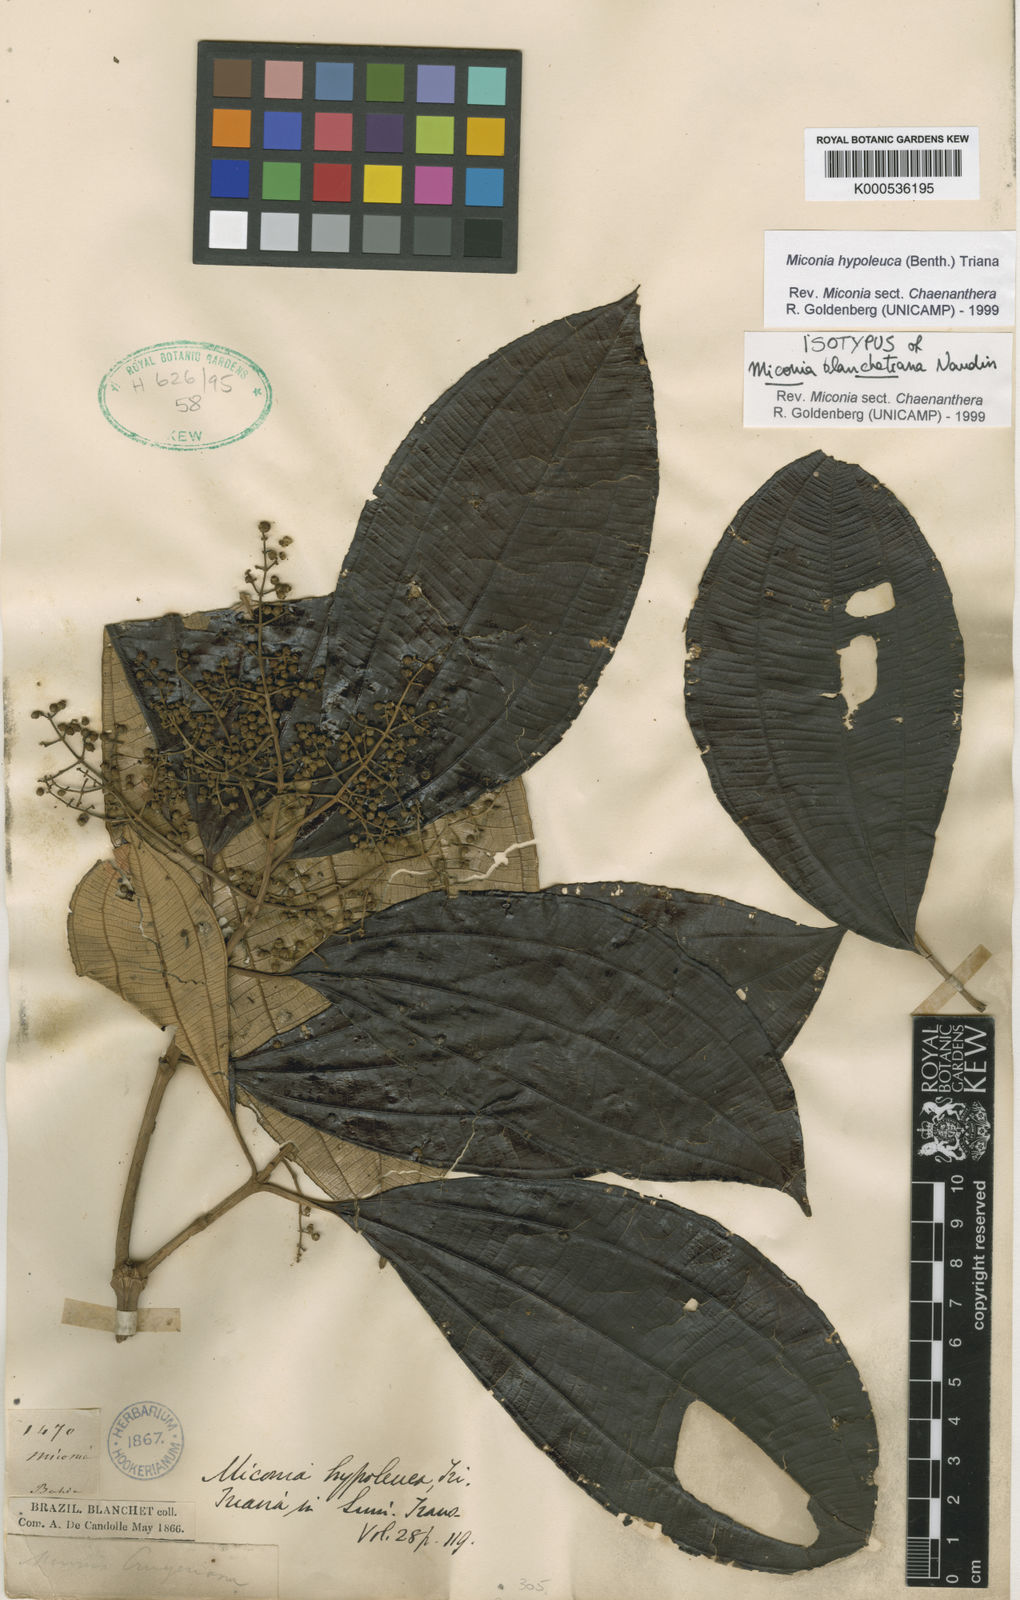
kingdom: Plantae
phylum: Tracheophyta
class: Magnoliopsida
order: Myrtales
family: Melastomataceae
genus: Miconia
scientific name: Miconia hypoleuca
